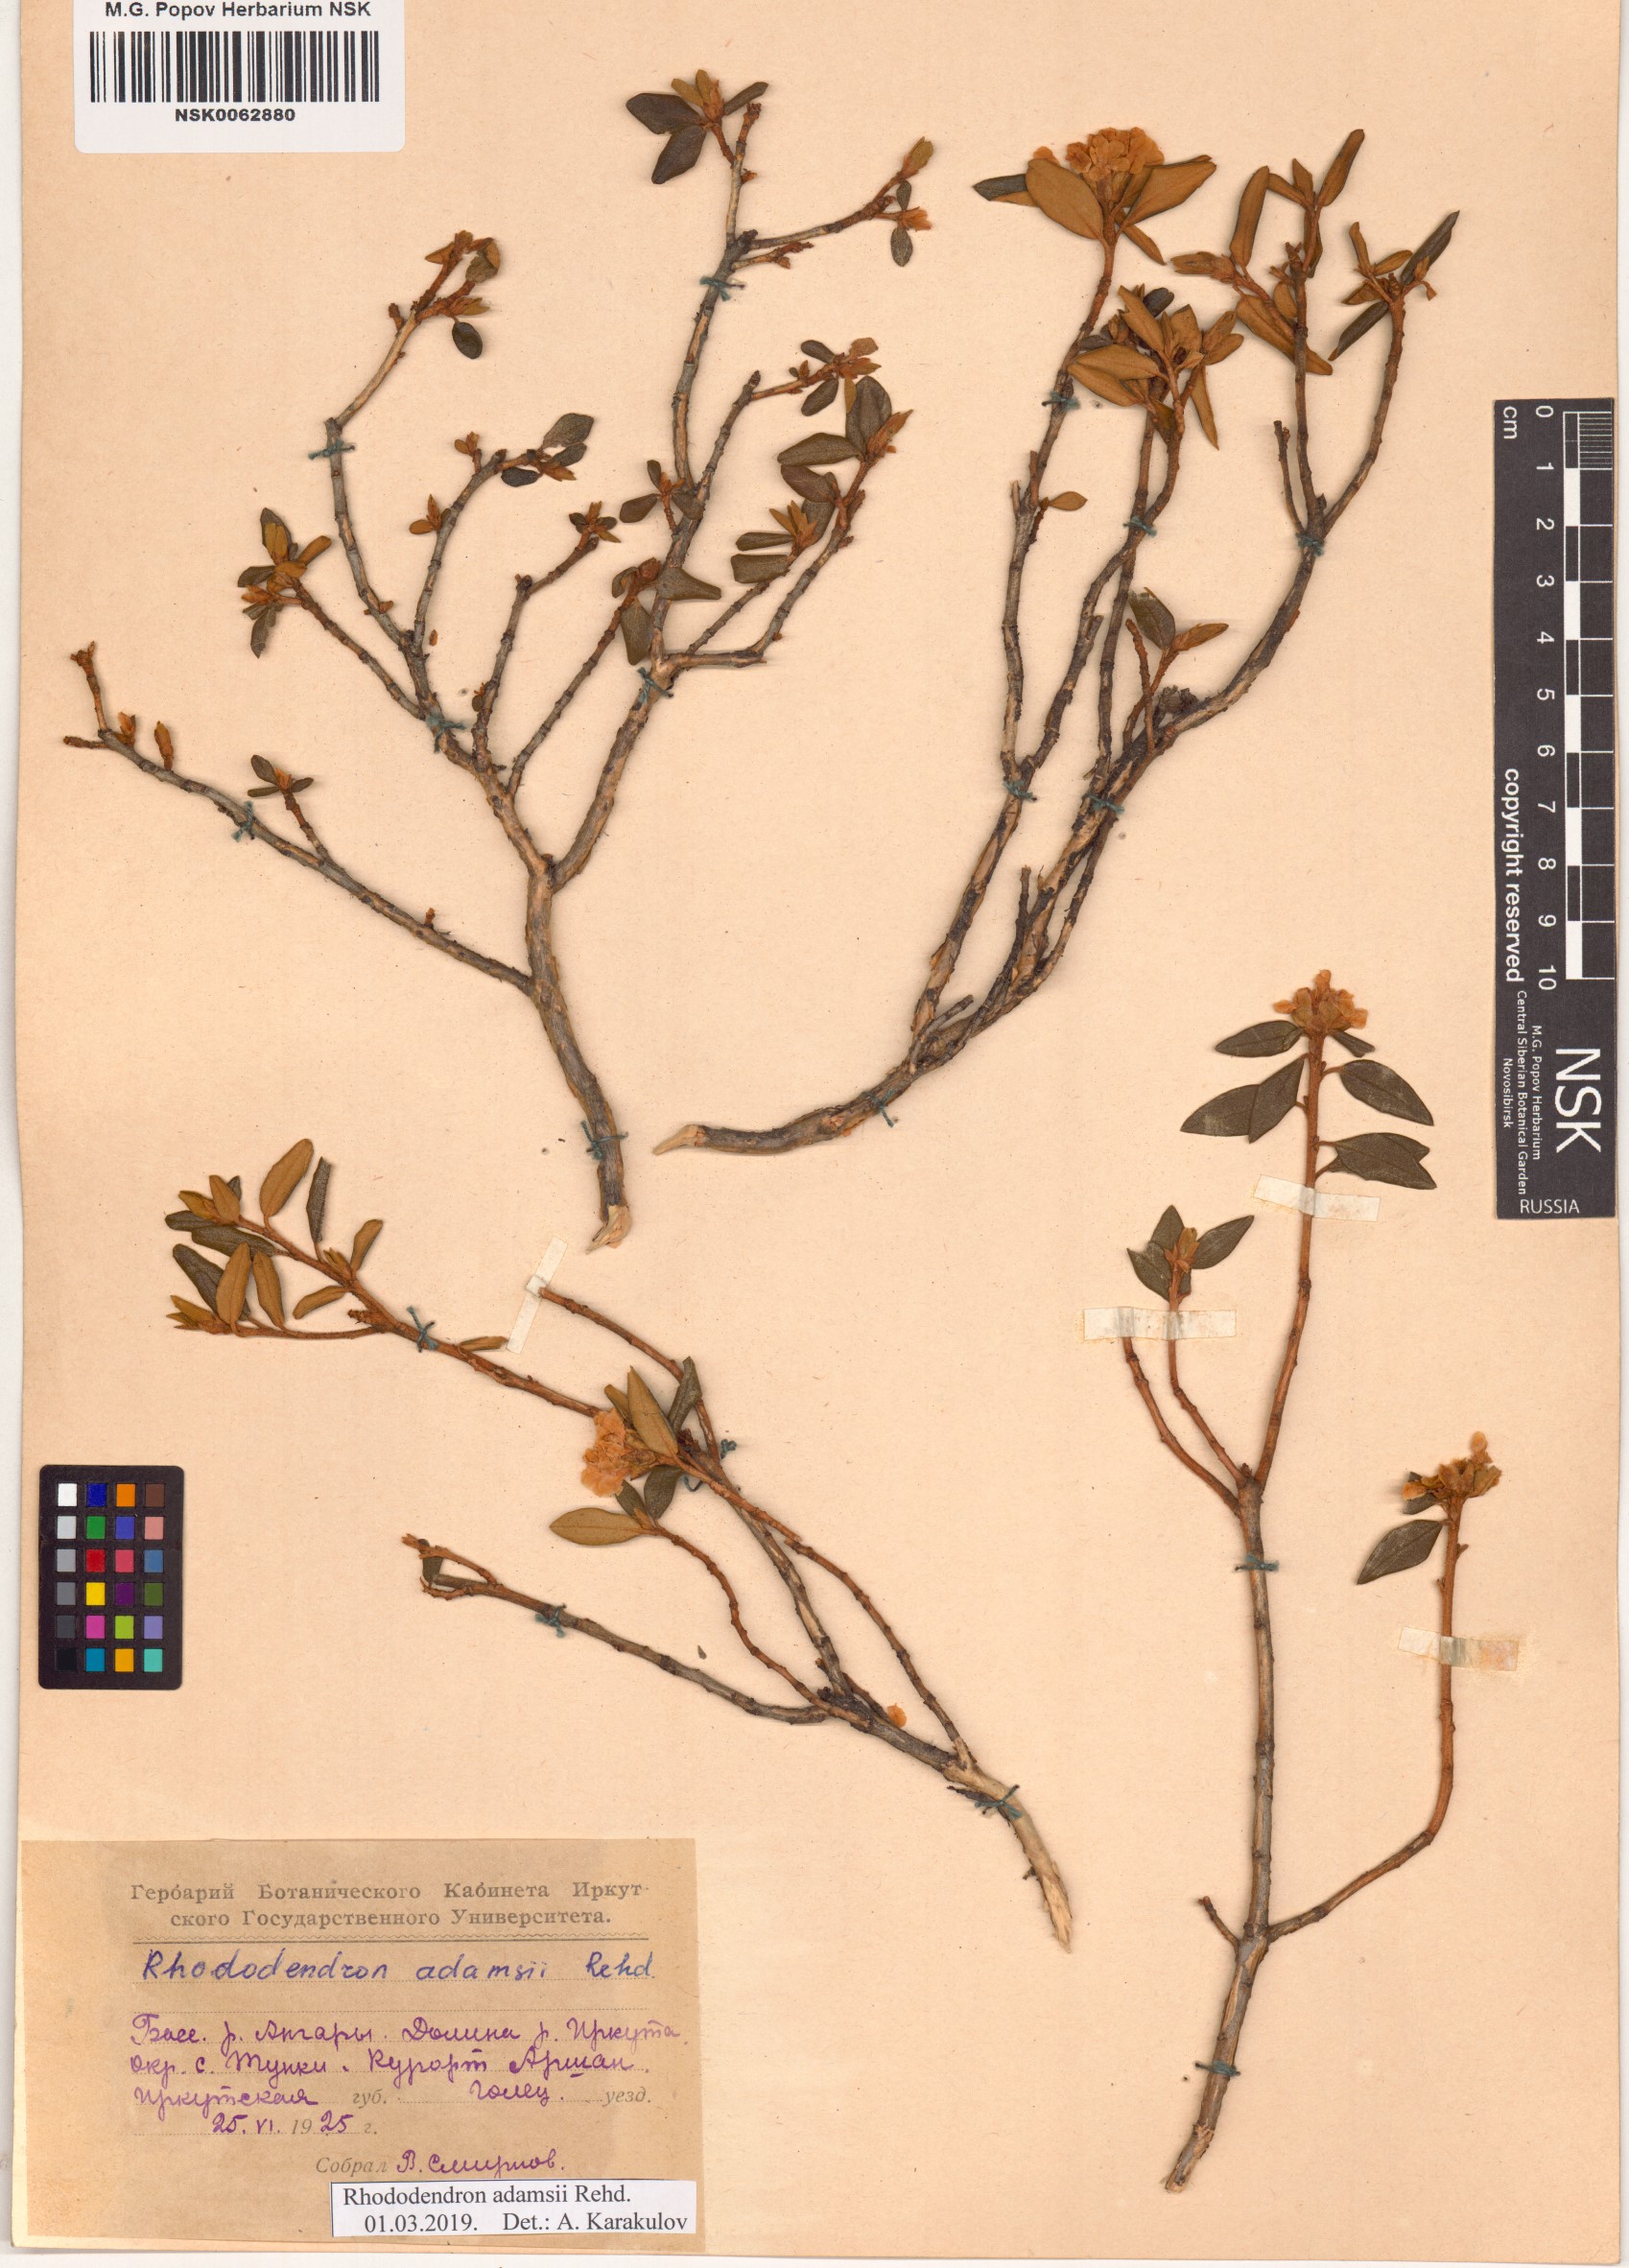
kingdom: Plantae
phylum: Tracheophyta
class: Magnoliopsida
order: Ericales
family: Ericaceae
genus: Rhododendron
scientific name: Rhododendron adamsii
